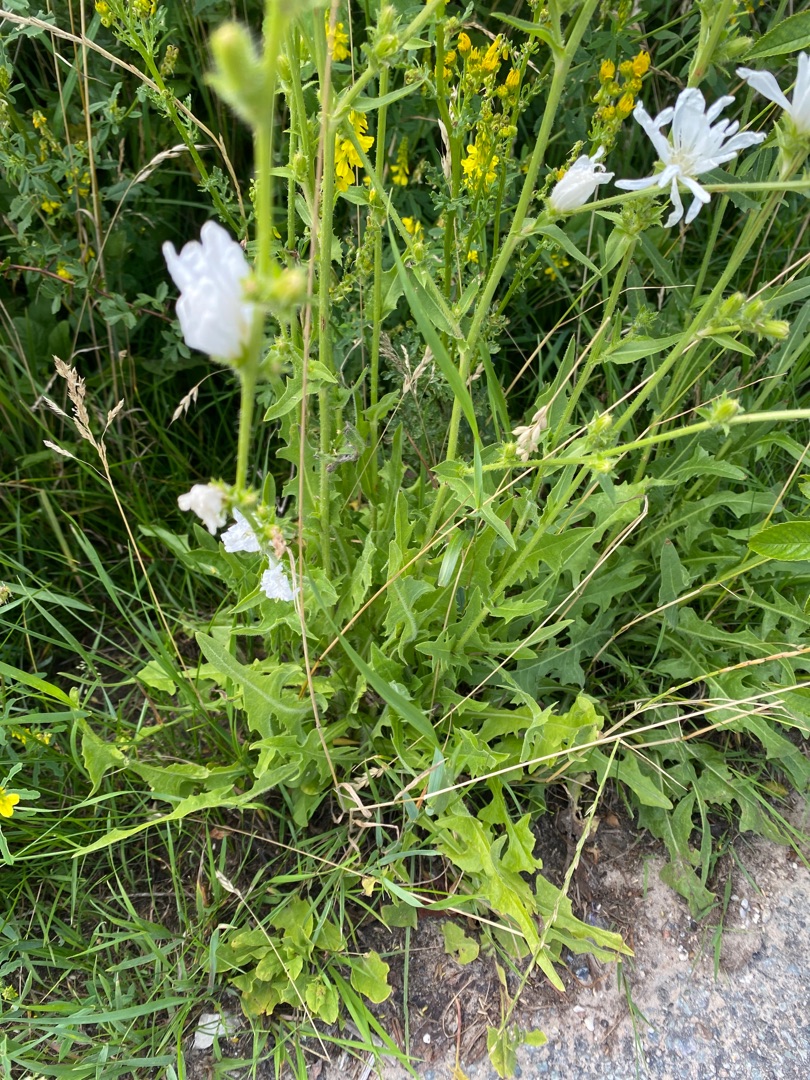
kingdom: Plantae
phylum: Tracheophyta
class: Magnoliopsida
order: Asterales
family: Asteraceae
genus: Cichorium
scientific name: Cichorium intybus
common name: Cikorie
